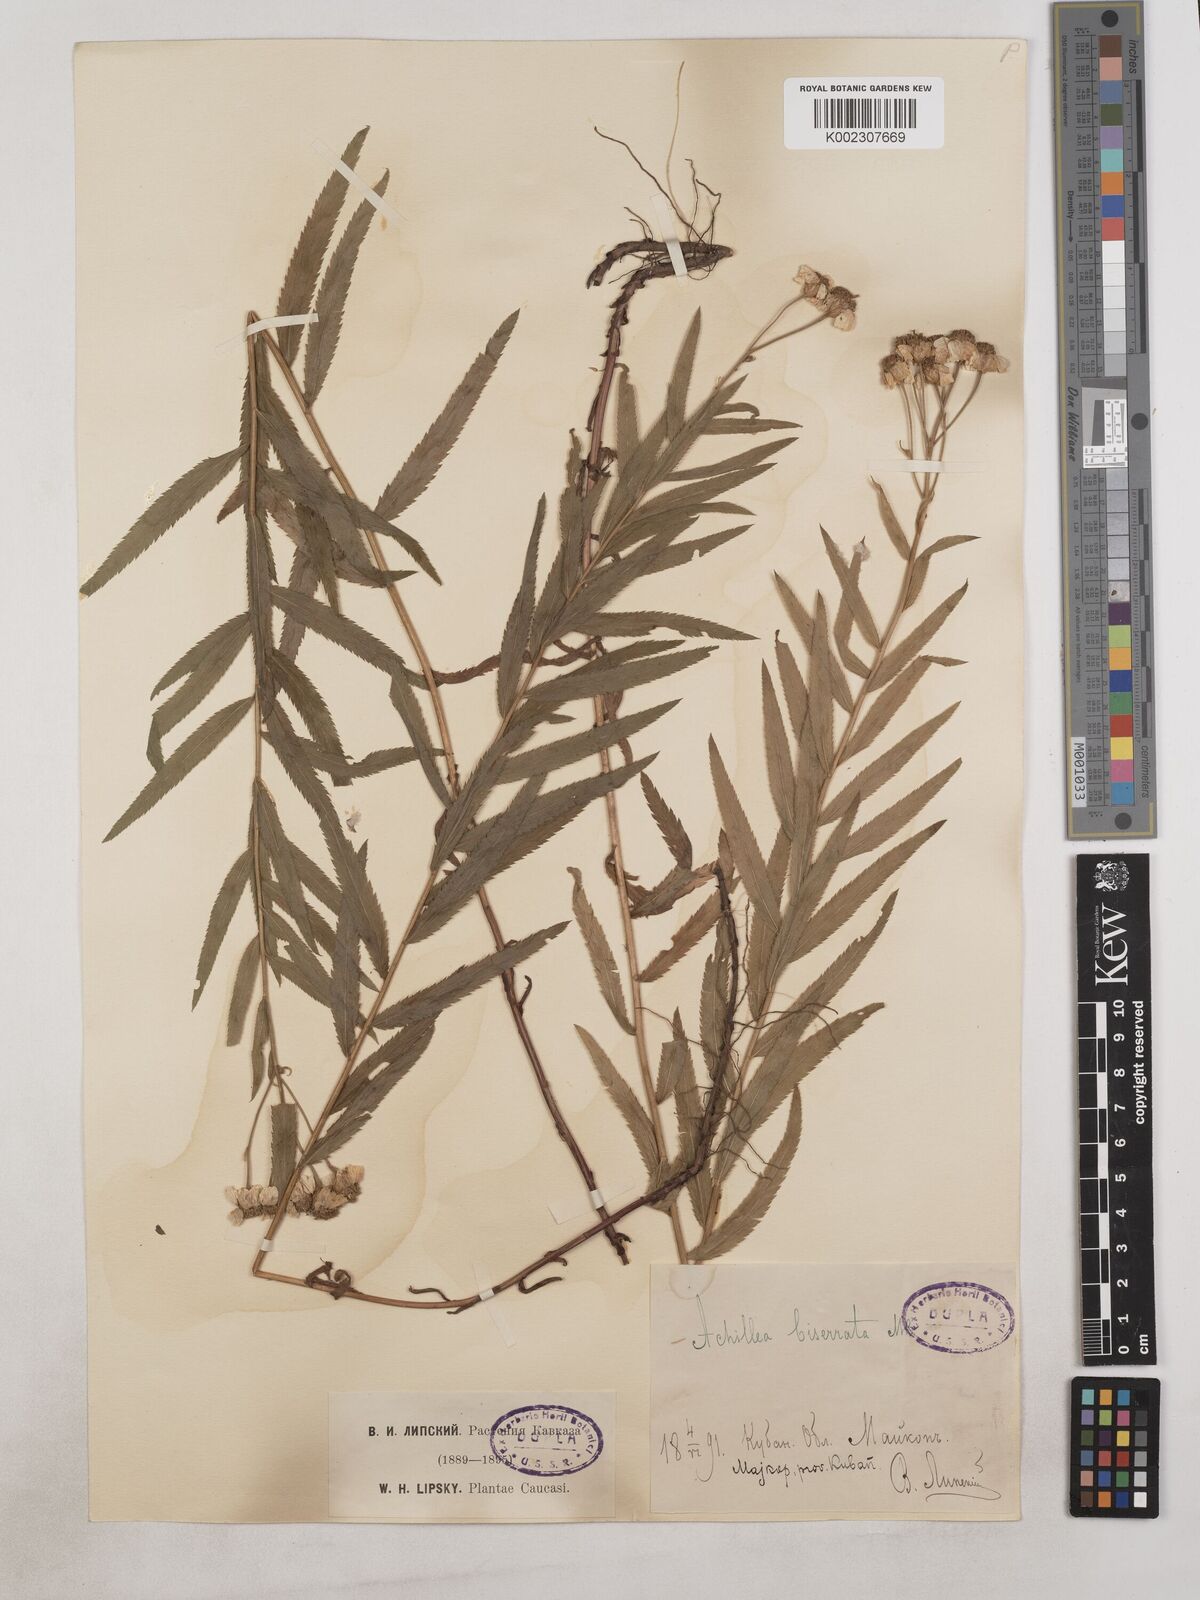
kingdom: Plantae
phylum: Tracheophyta
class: Magnoliopsida
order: Asterales
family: Asteraceae
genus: Achillea
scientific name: Achillea biserrata
